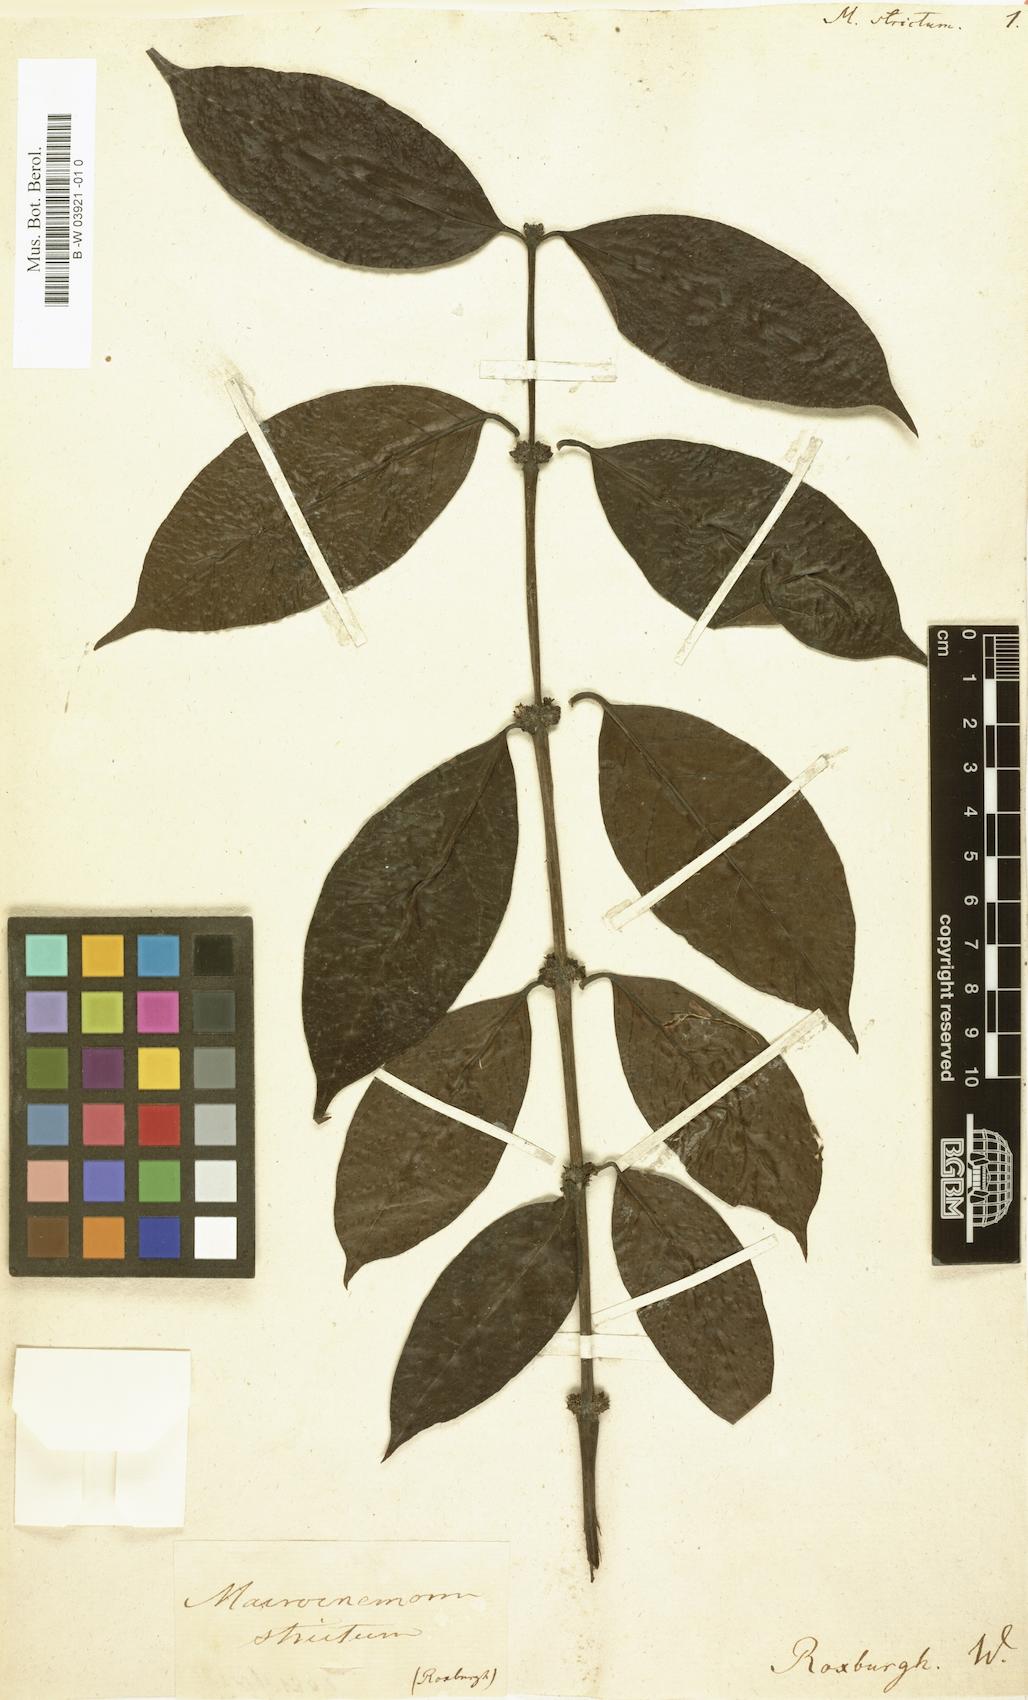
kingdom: Plantae
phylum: Tracheophyta
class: Magnoliopsida
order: Gentianales
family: Rubiaceae
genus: Hyptianthera
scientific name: Hyptianthera stricta
